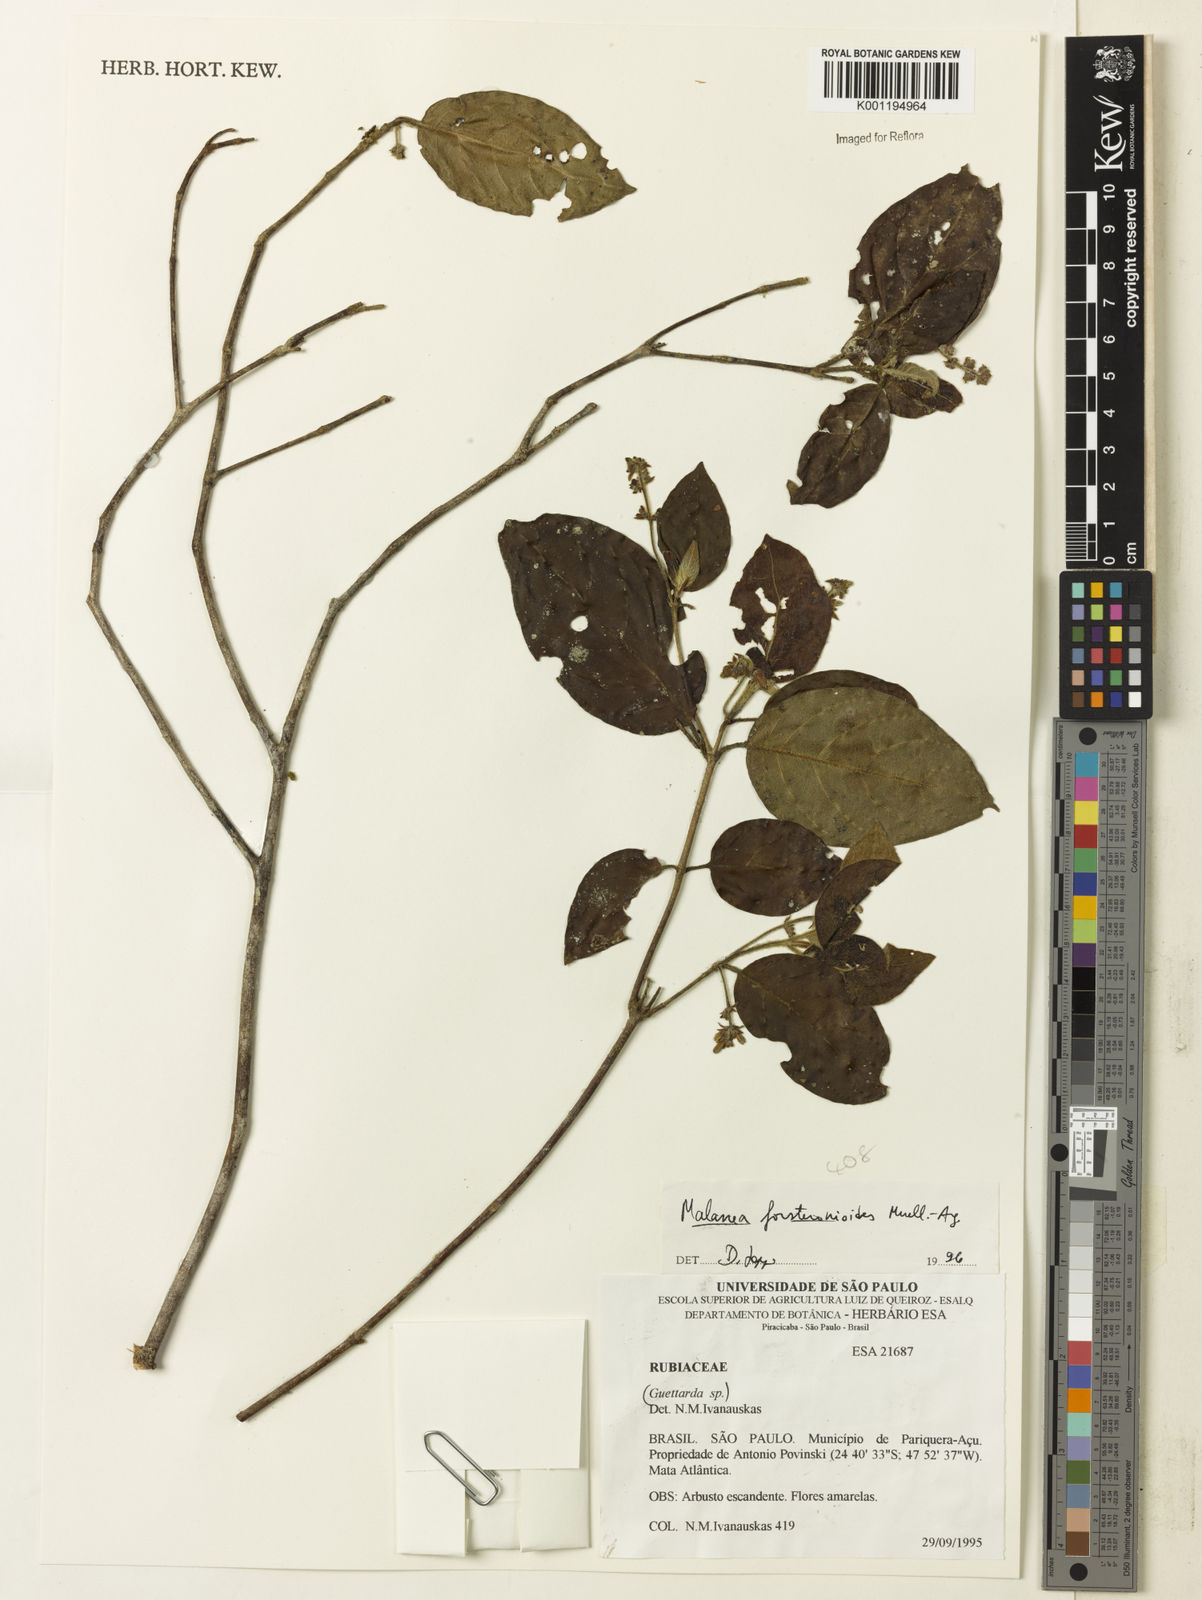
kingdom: Plantae
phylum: Tracheophyta
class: Magnoliopsida
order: Gentianales
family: Rubiaceae
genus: Malanea
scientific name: Malanea
